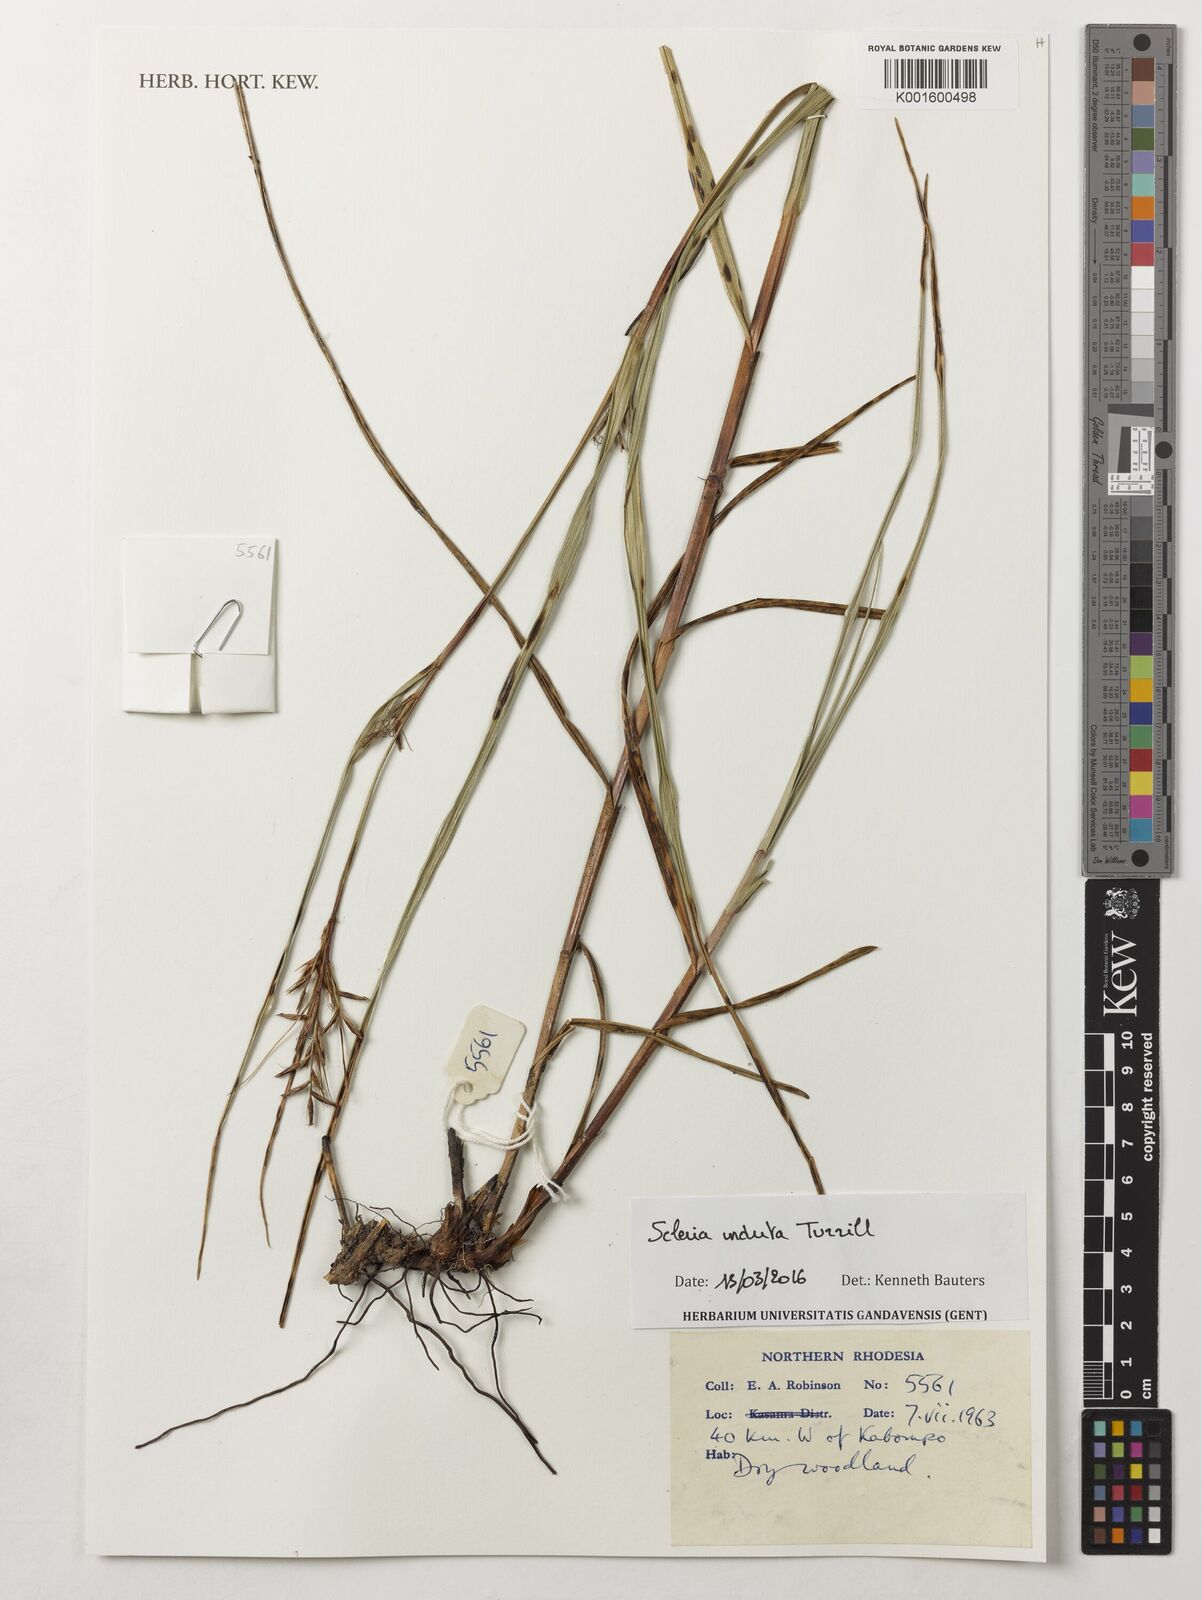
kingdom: Plantae
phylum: Tracheophyta
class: Liliopsida
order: Poales
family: Cyperaceae
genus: Scleria
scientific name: Scleria induta
